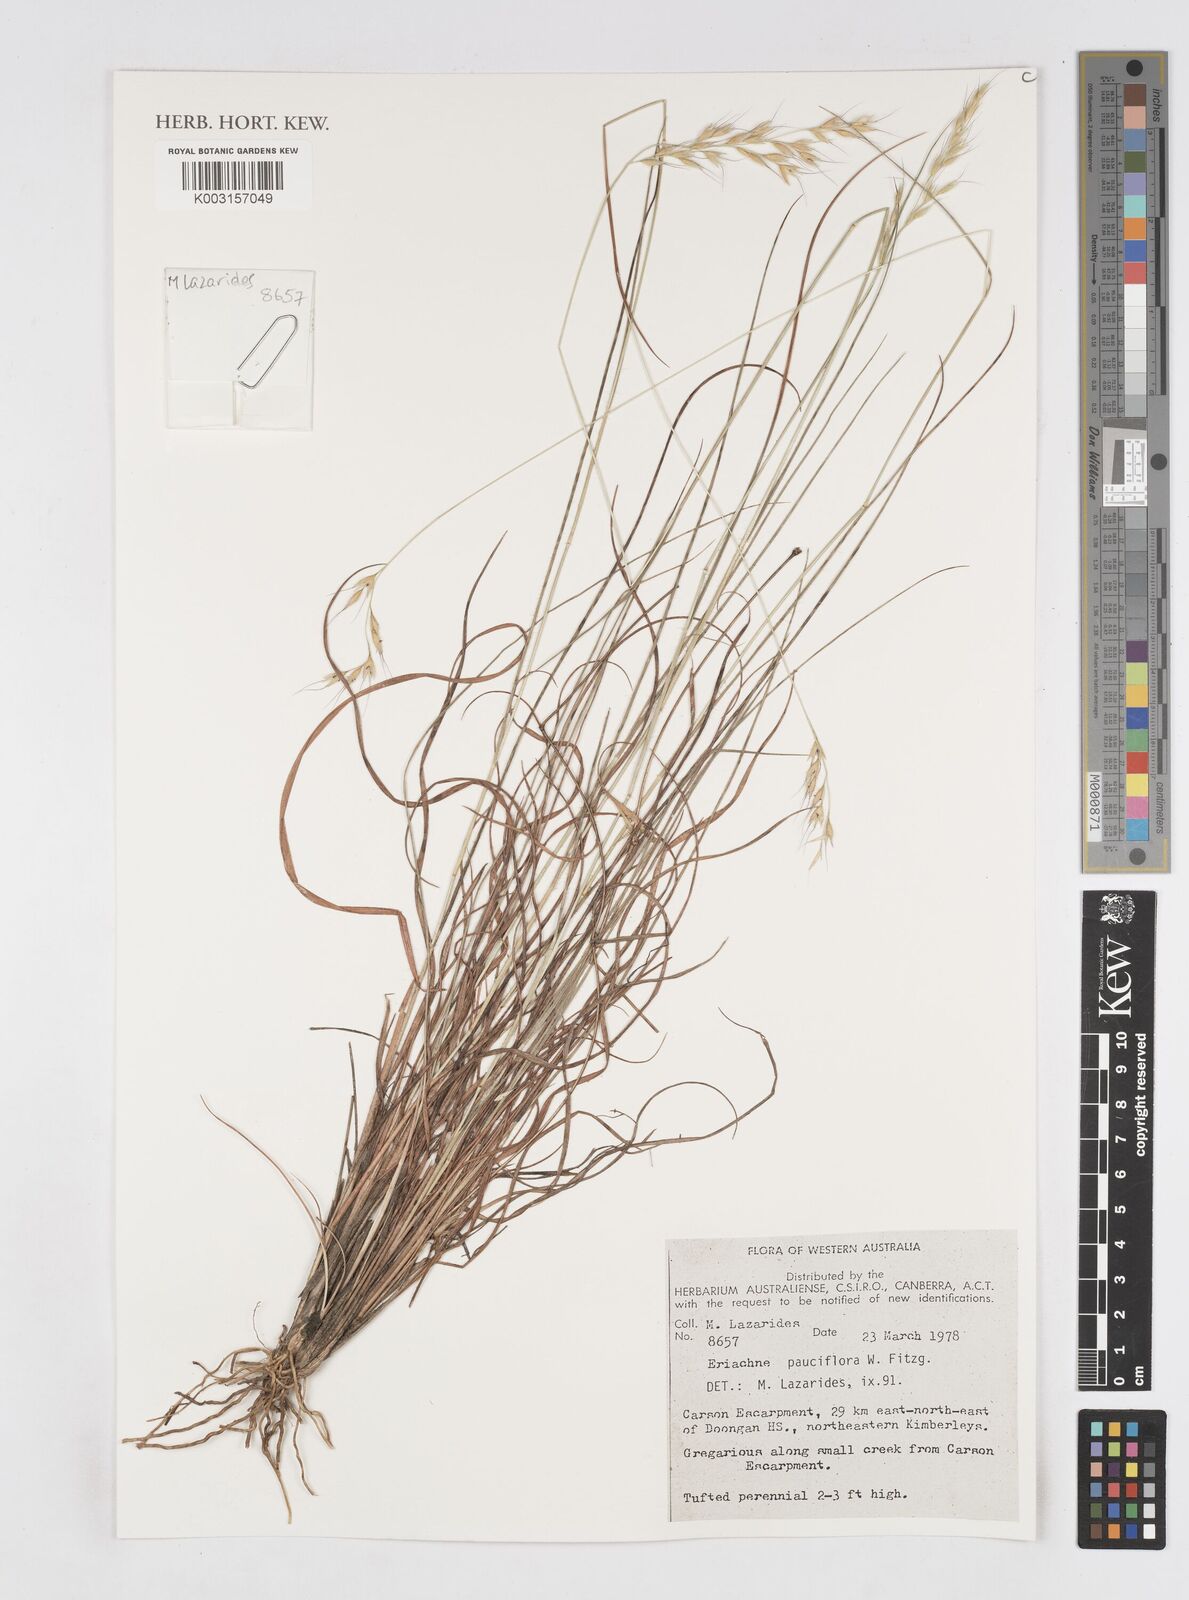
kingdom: Plantae
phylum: Tracheophyta
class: Liliopsida
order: Poales
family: Poaceae
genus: Eriachne
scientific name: Eriachne pauciflora
